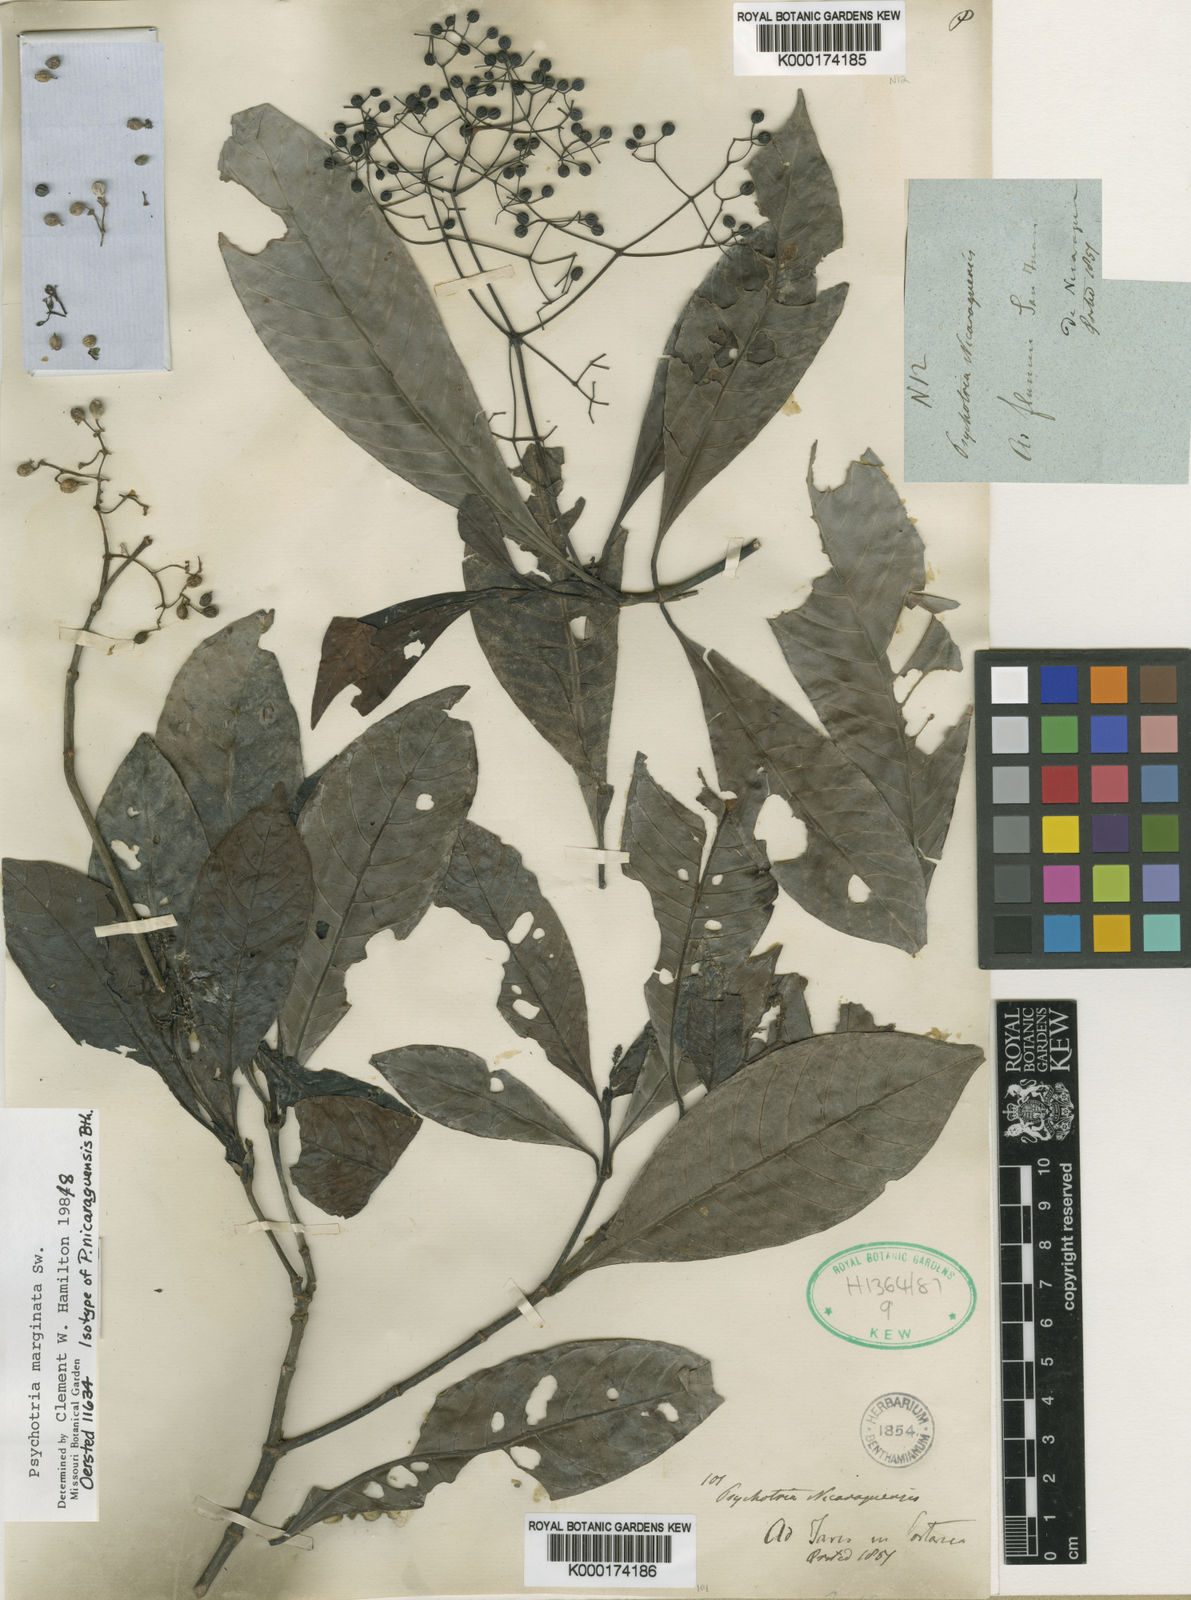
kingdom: Plantae
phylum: Tracheophyta
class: Magnoliopsida
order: Gentianales
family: Rubiaceae
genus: Psychotria
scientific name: Psychotria marginata
